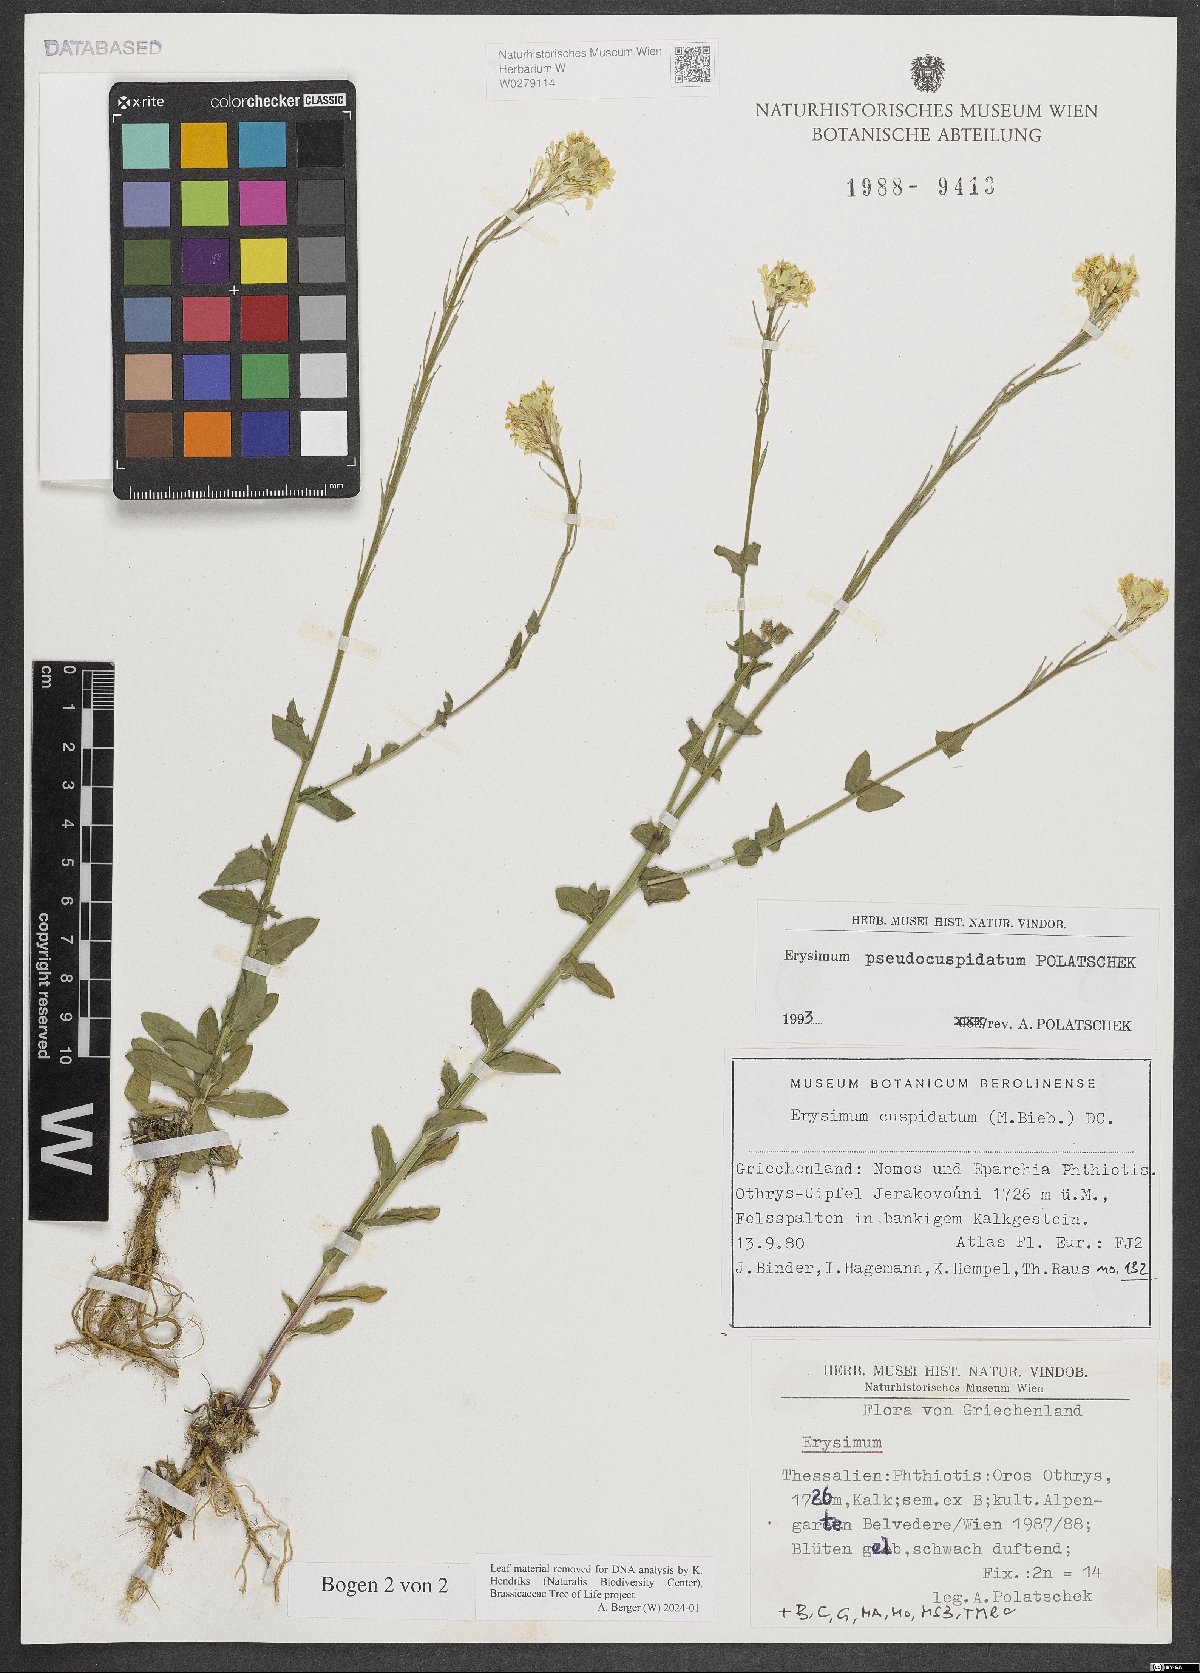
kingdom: Plantae
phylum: Tracheophyta
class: Magnoliopsida
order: Brassicales
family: Brassicaceae
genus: Erysimum
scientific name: Erysimum pseudocuspidatum
